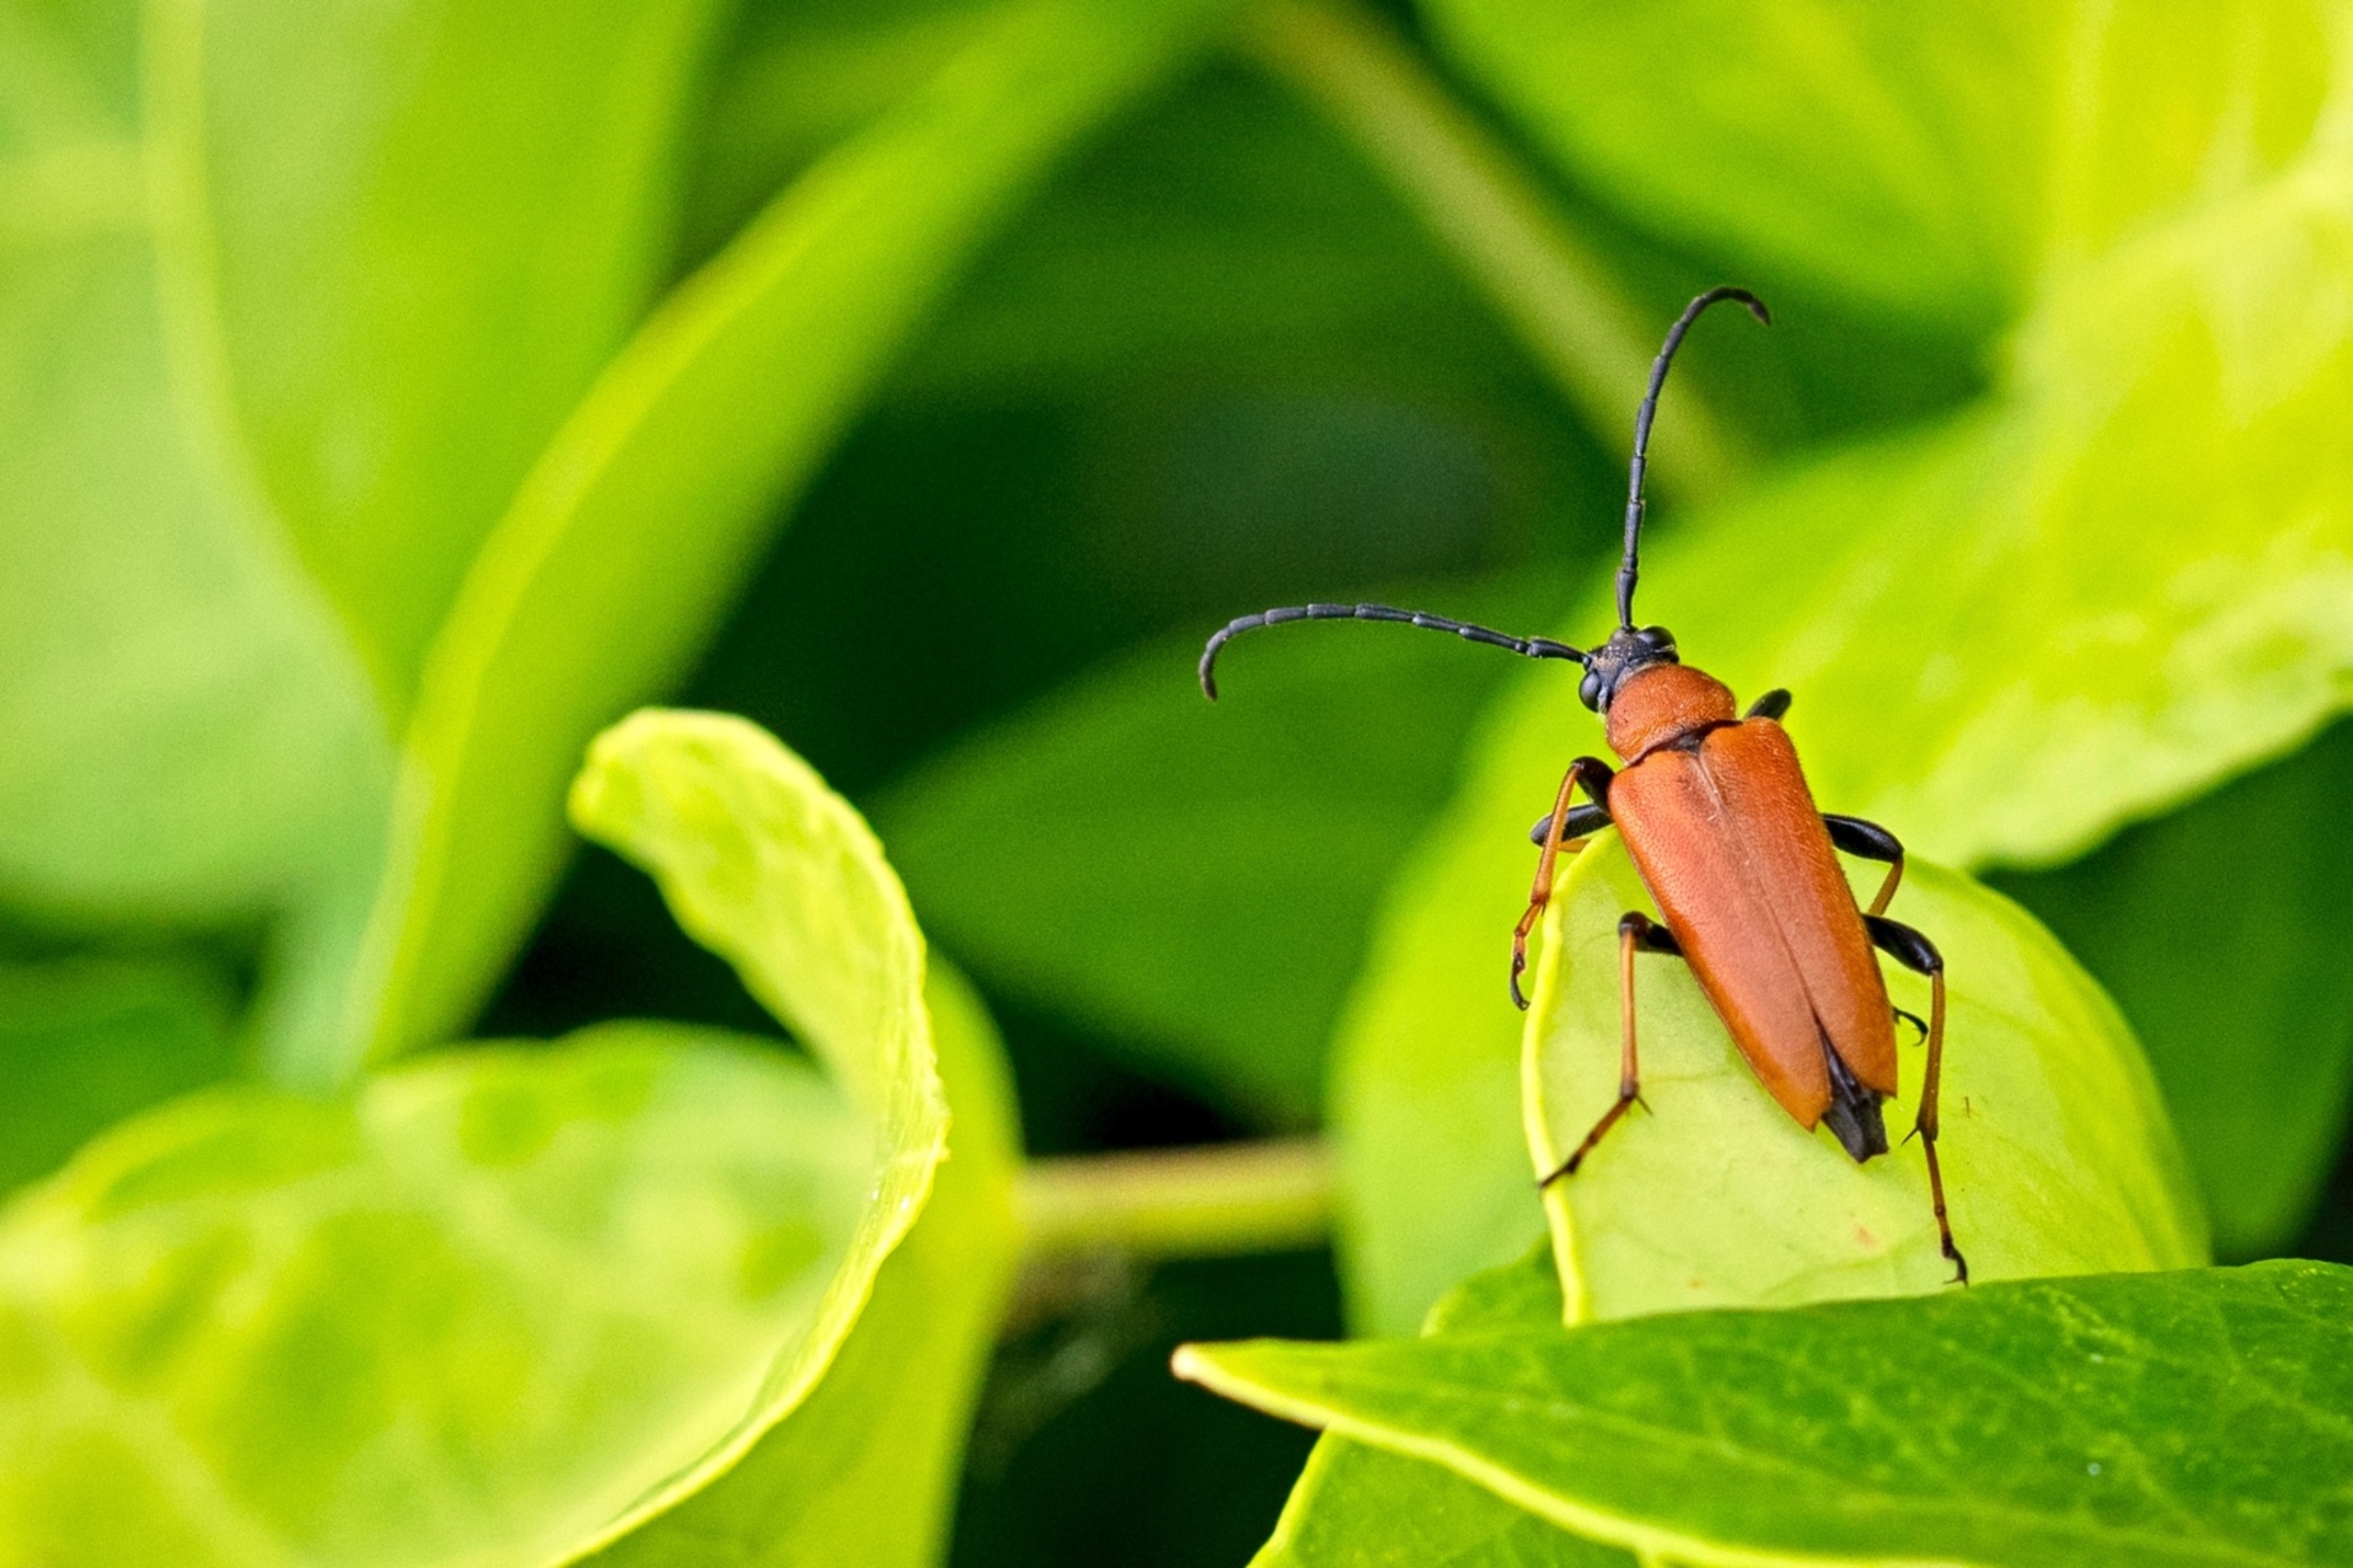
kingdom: Animalia
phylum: Arthropoda
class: Insecta
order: Coleoptera
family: Cerambycidae
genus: Stictoleptura
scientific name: Stictoleptura rubra
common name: Rød blomsterbuk
